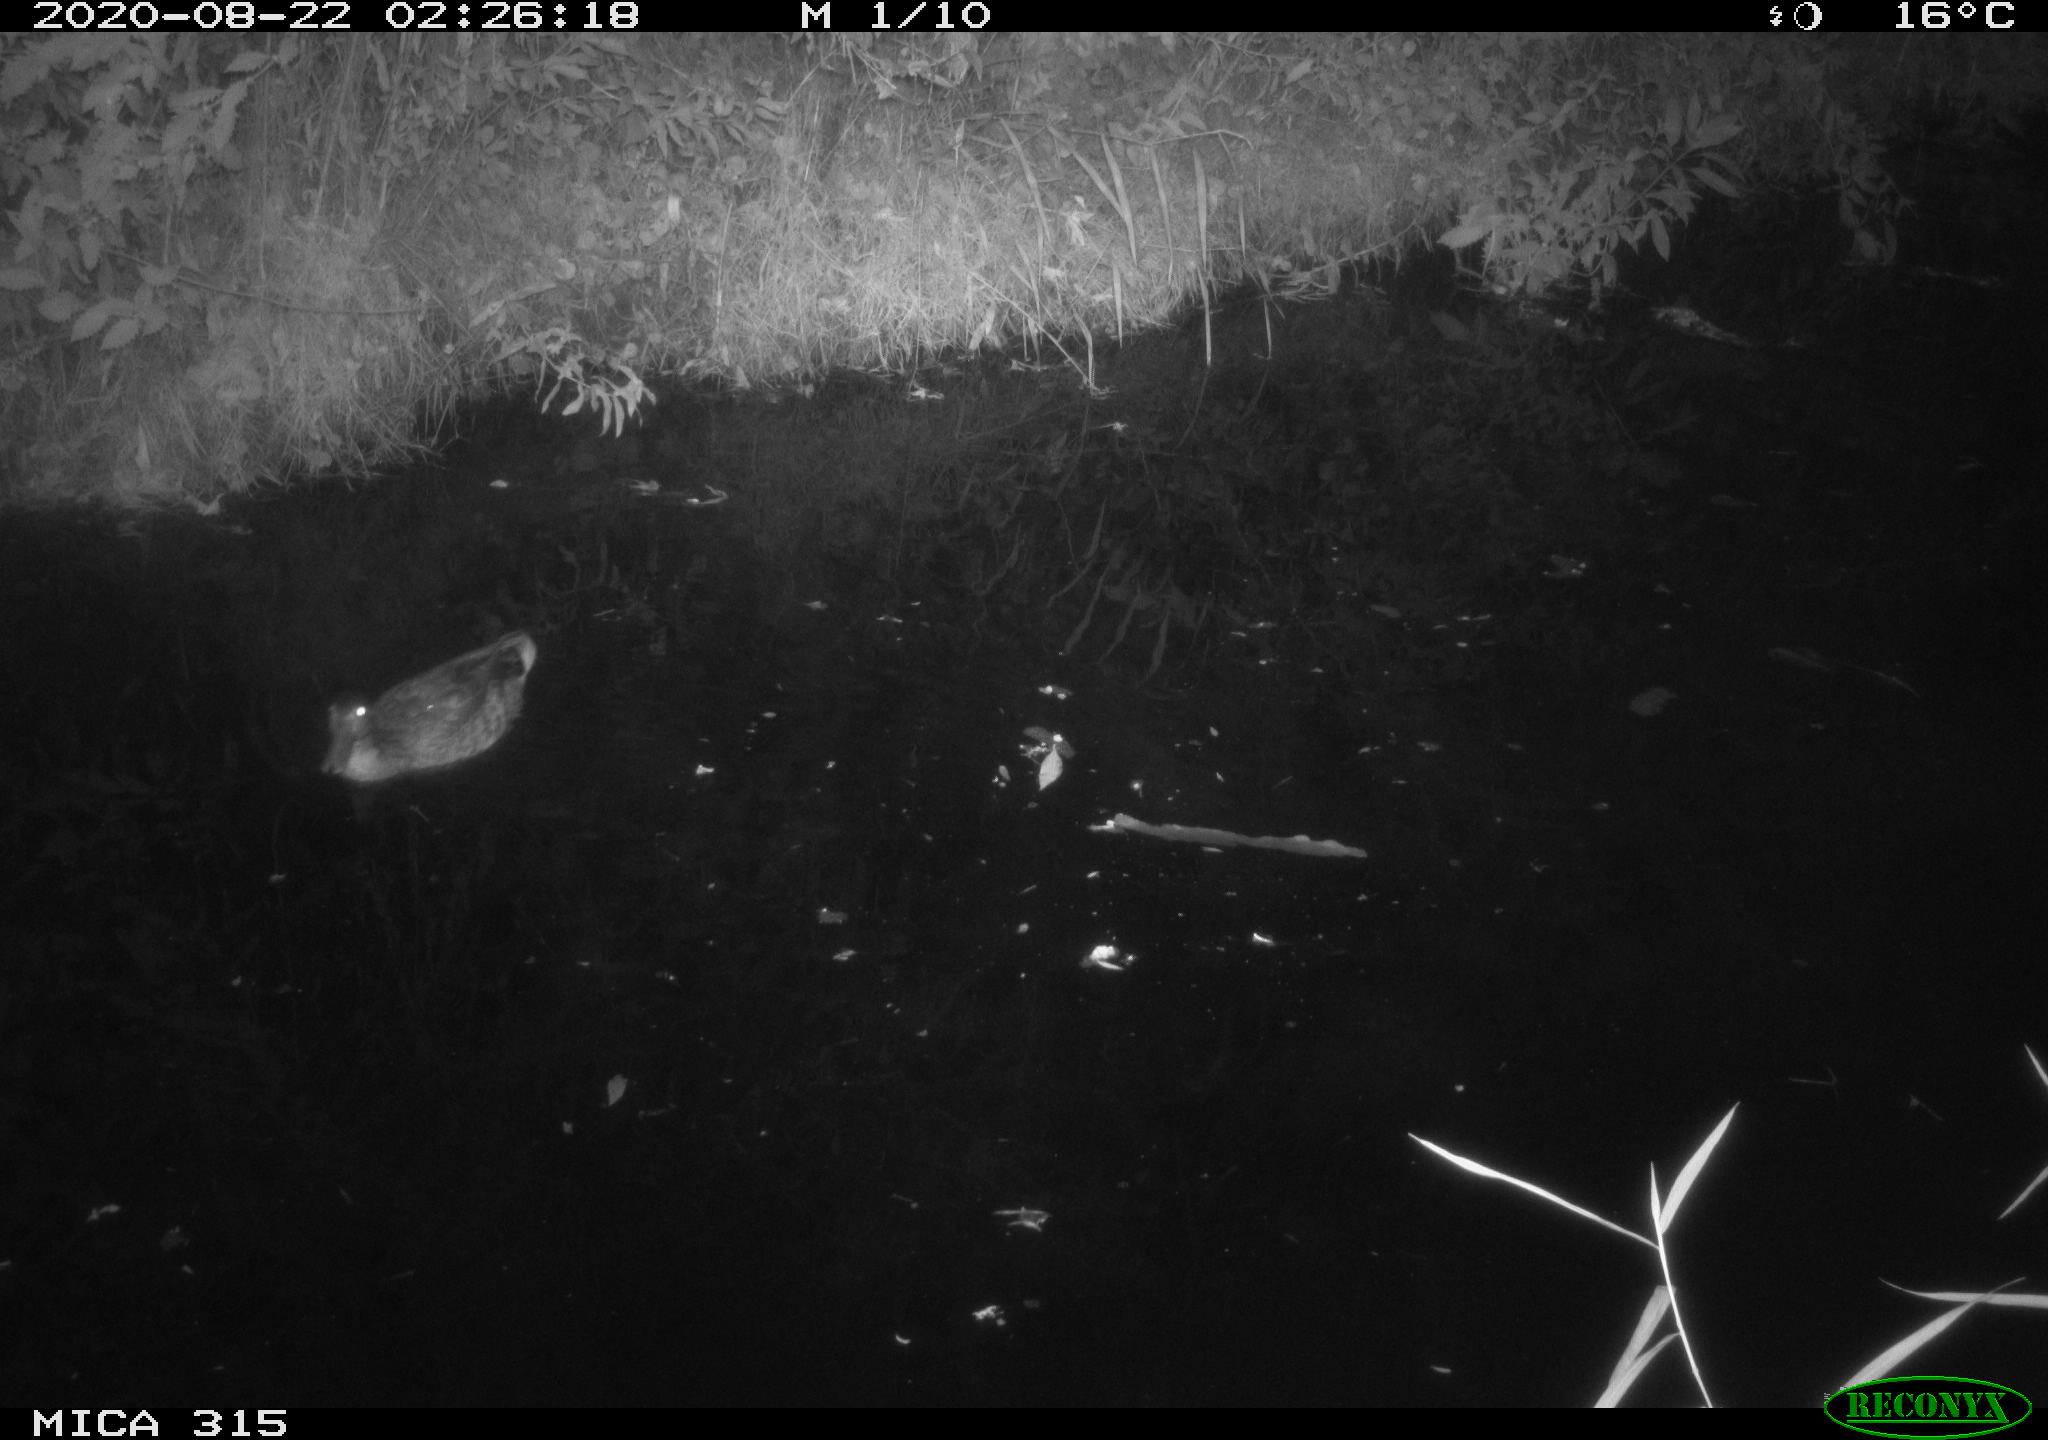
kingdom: Animalia
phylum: Chordata
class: Aves
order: Anseriformes
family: Anatidae
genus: Anas
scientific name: Anas platyrhynchos
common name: Mallard
